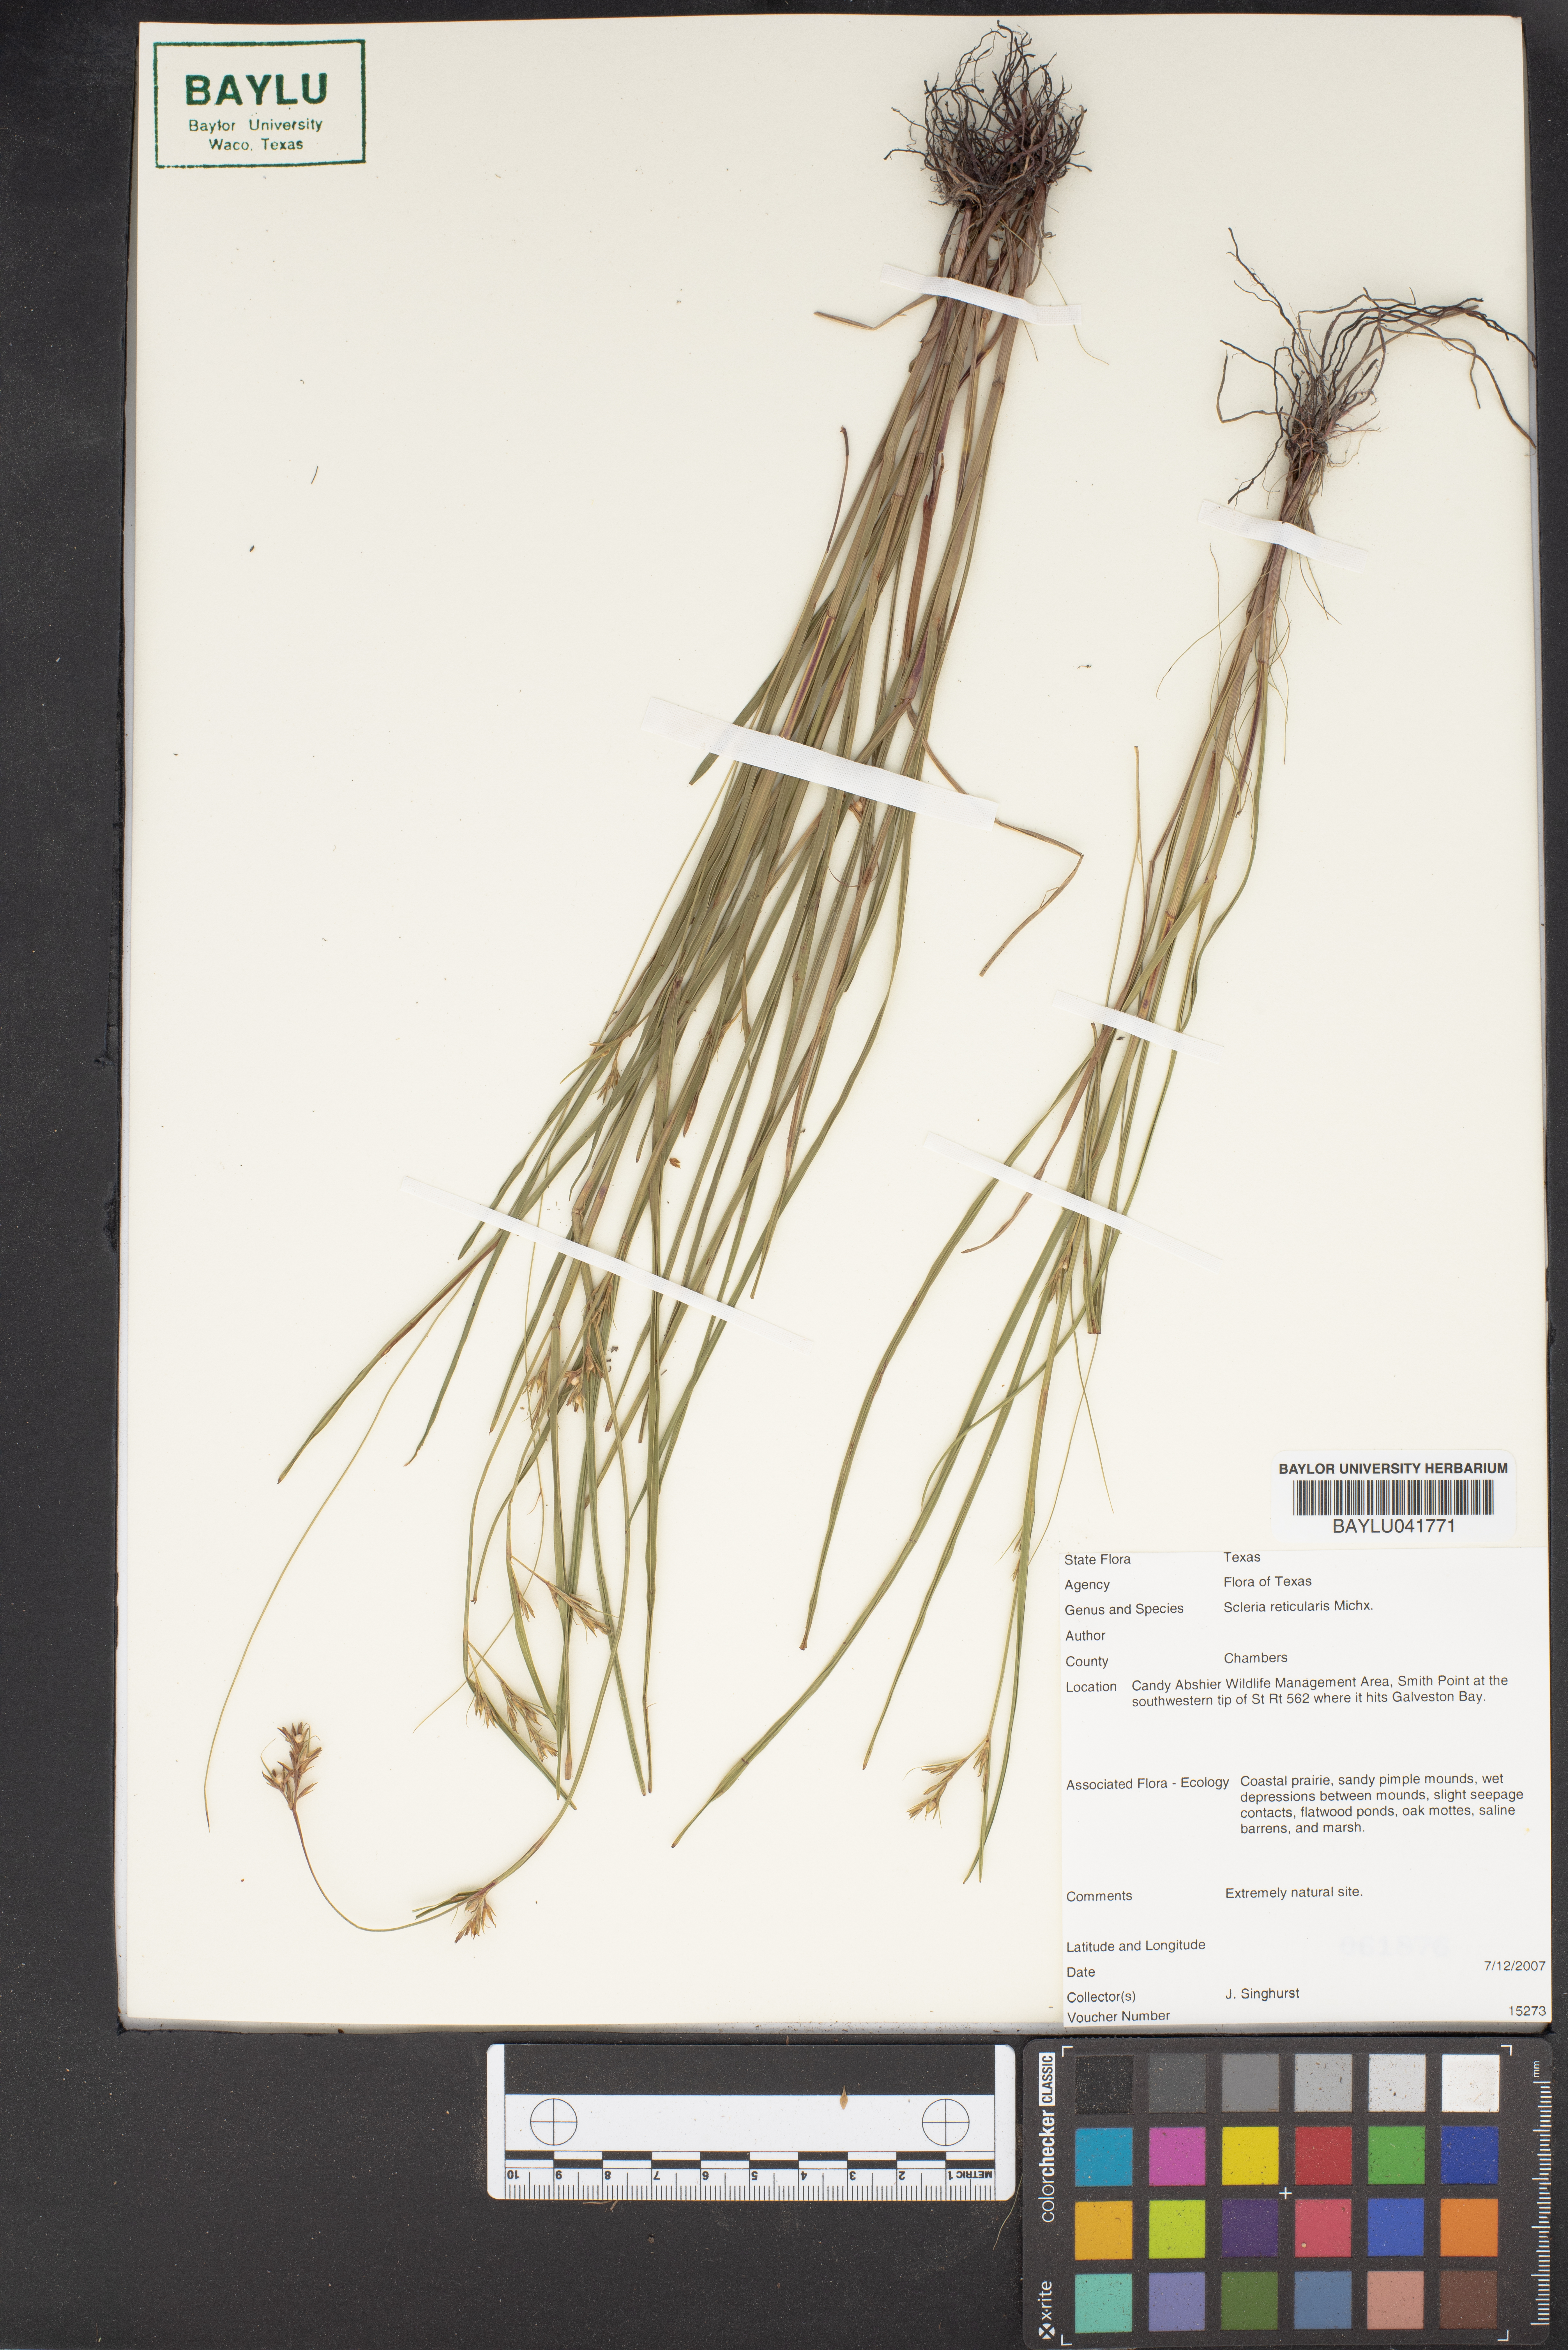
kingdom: Plantae
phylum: Tracheophyta
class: Liliopsida
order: Poales
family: Cyperaceae
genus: Scleria
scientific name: Scleria reticularis
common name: Netted nutrush
